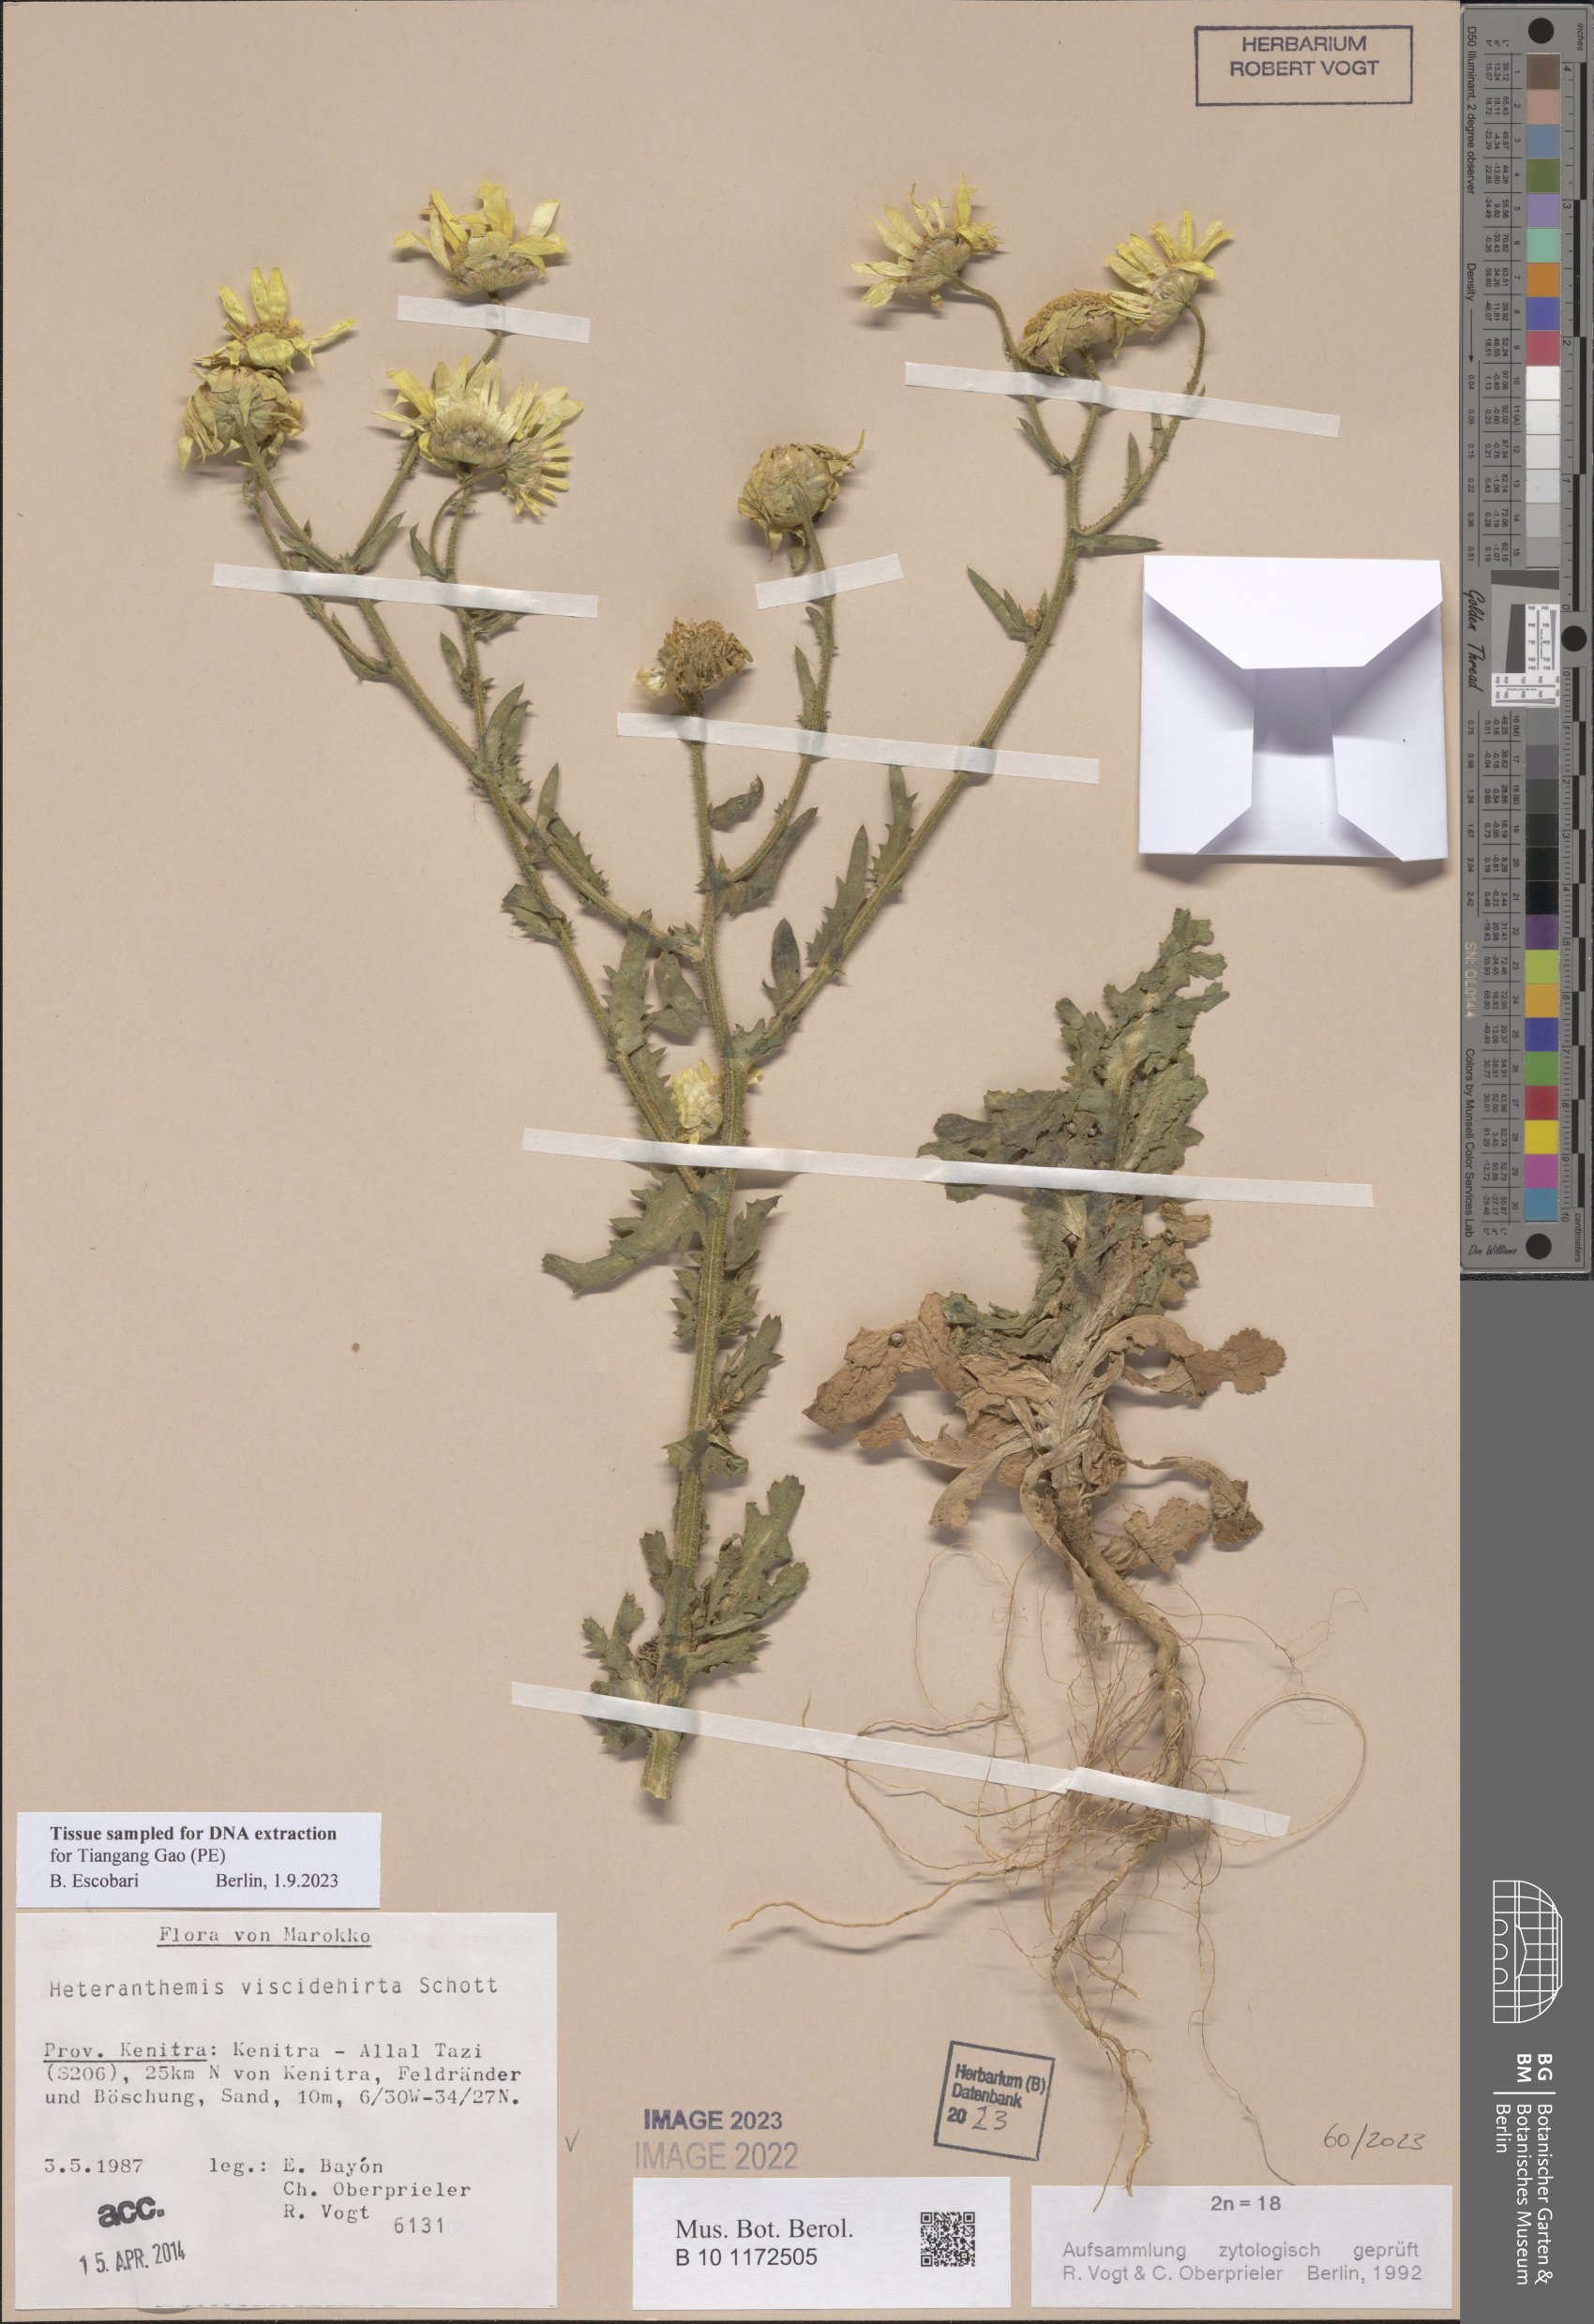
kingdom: Plantae
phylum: Tracheophyta
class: Magnoliopsida
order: Asterales
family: Asteraceae
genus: Heteranthemis
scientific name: Heteranthemis viscidehirta
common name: Sticky oxeye
